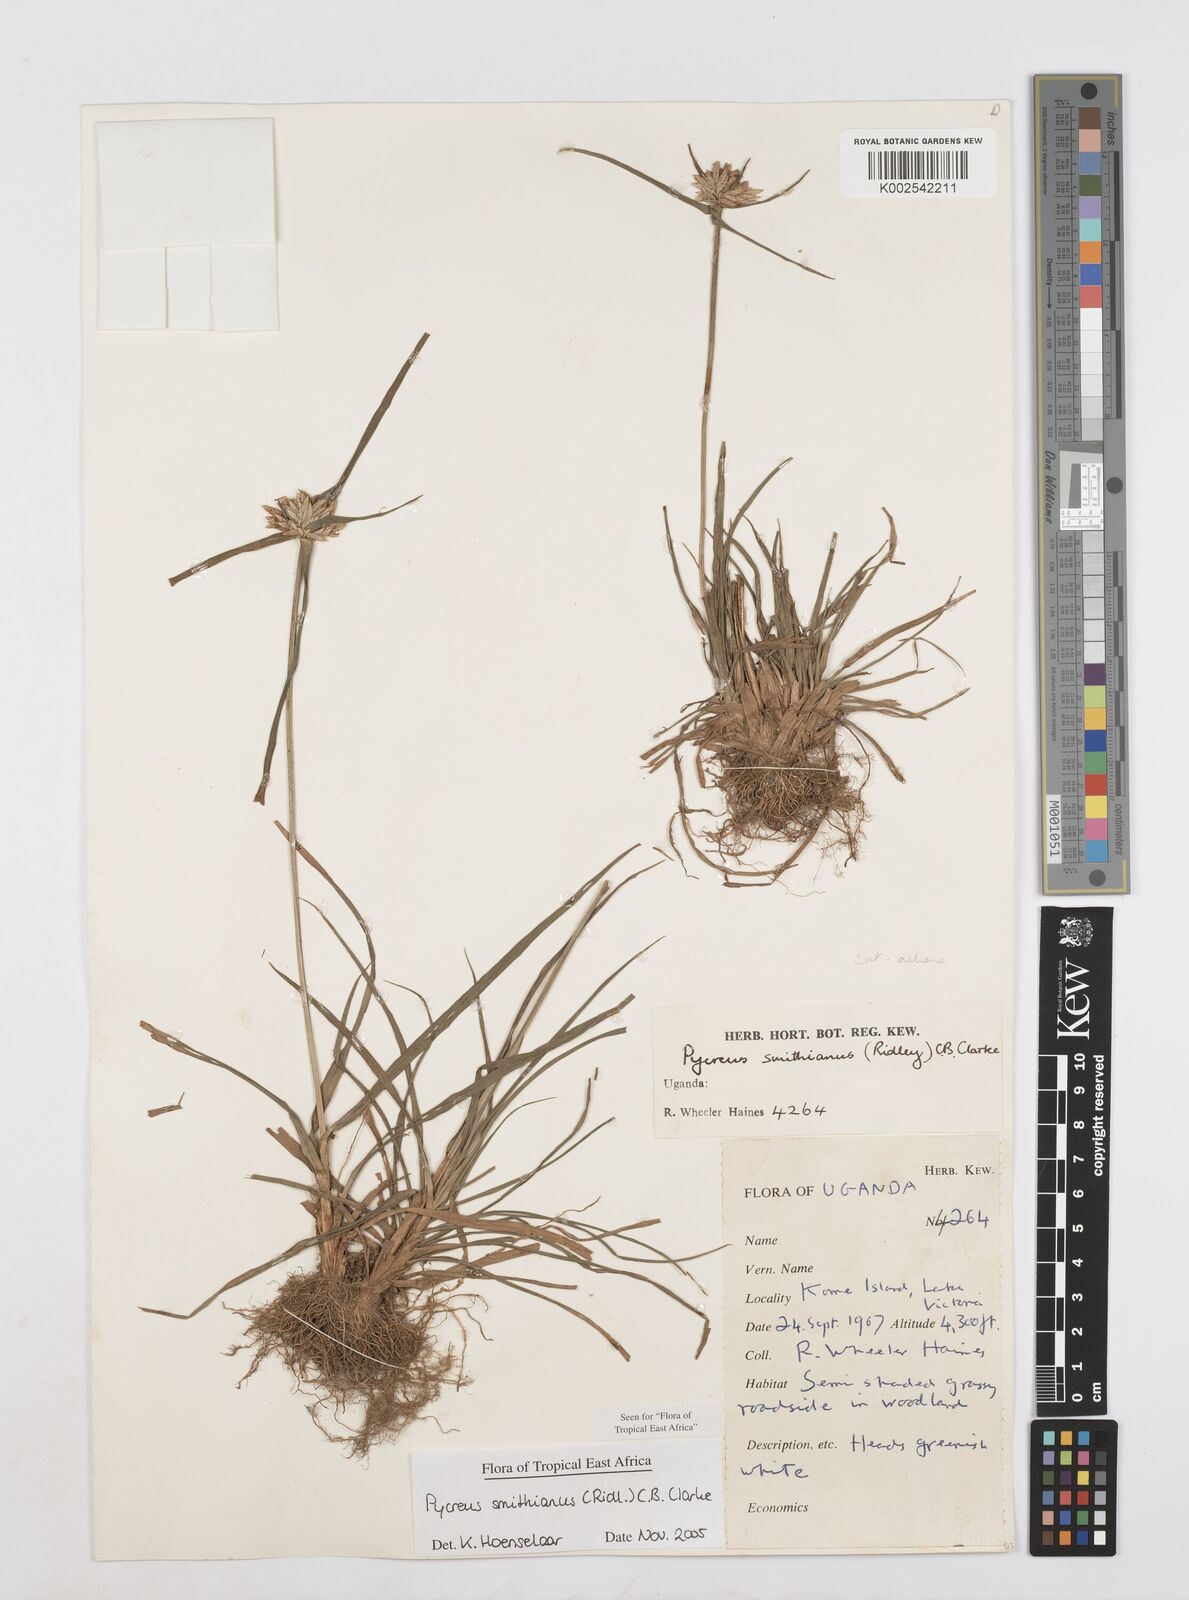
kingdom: Plantae
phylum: Tracheophyta
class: Liliopsida
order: Poales
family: Cyperaceae
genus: Cyperus
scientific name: Cyperus smithianus
